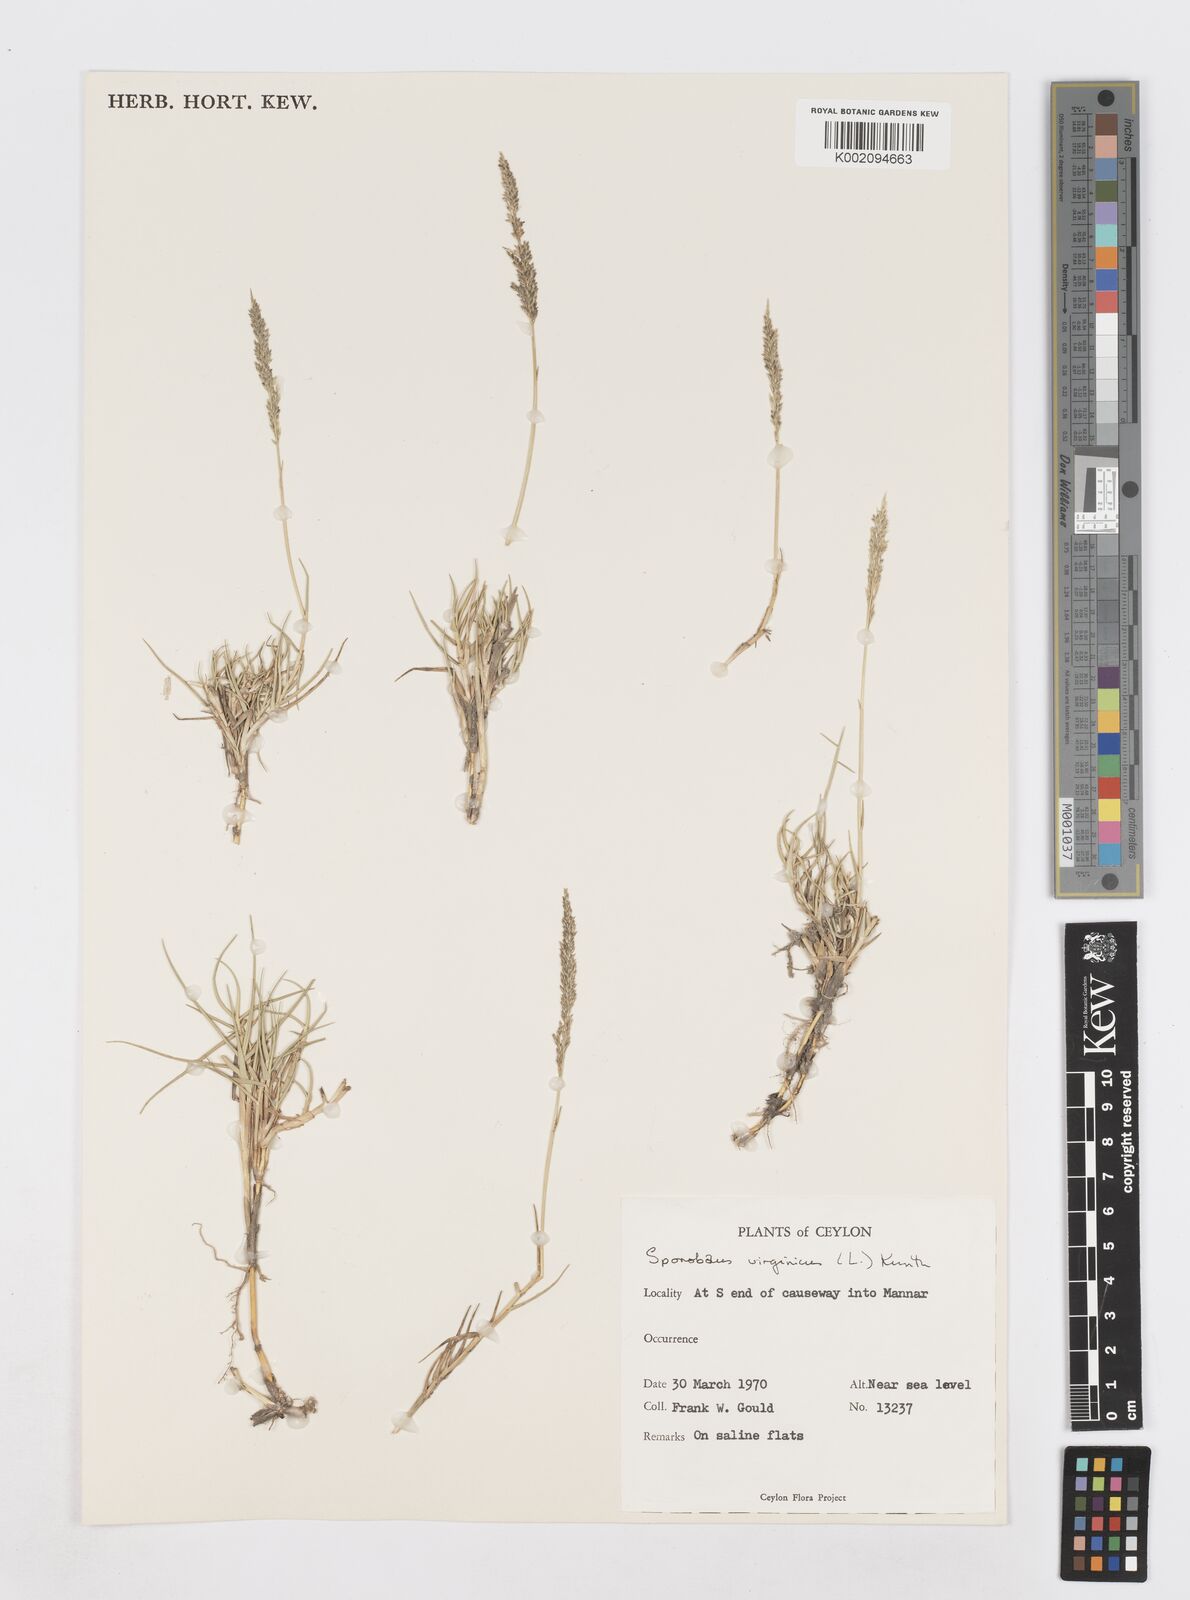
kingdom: Plantae
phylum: Tracheophyta
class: Liliopsida
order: Poales
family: Poaceae
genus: Sporobolus
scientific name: Sporobolus virginicus
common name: Beach dropseed
